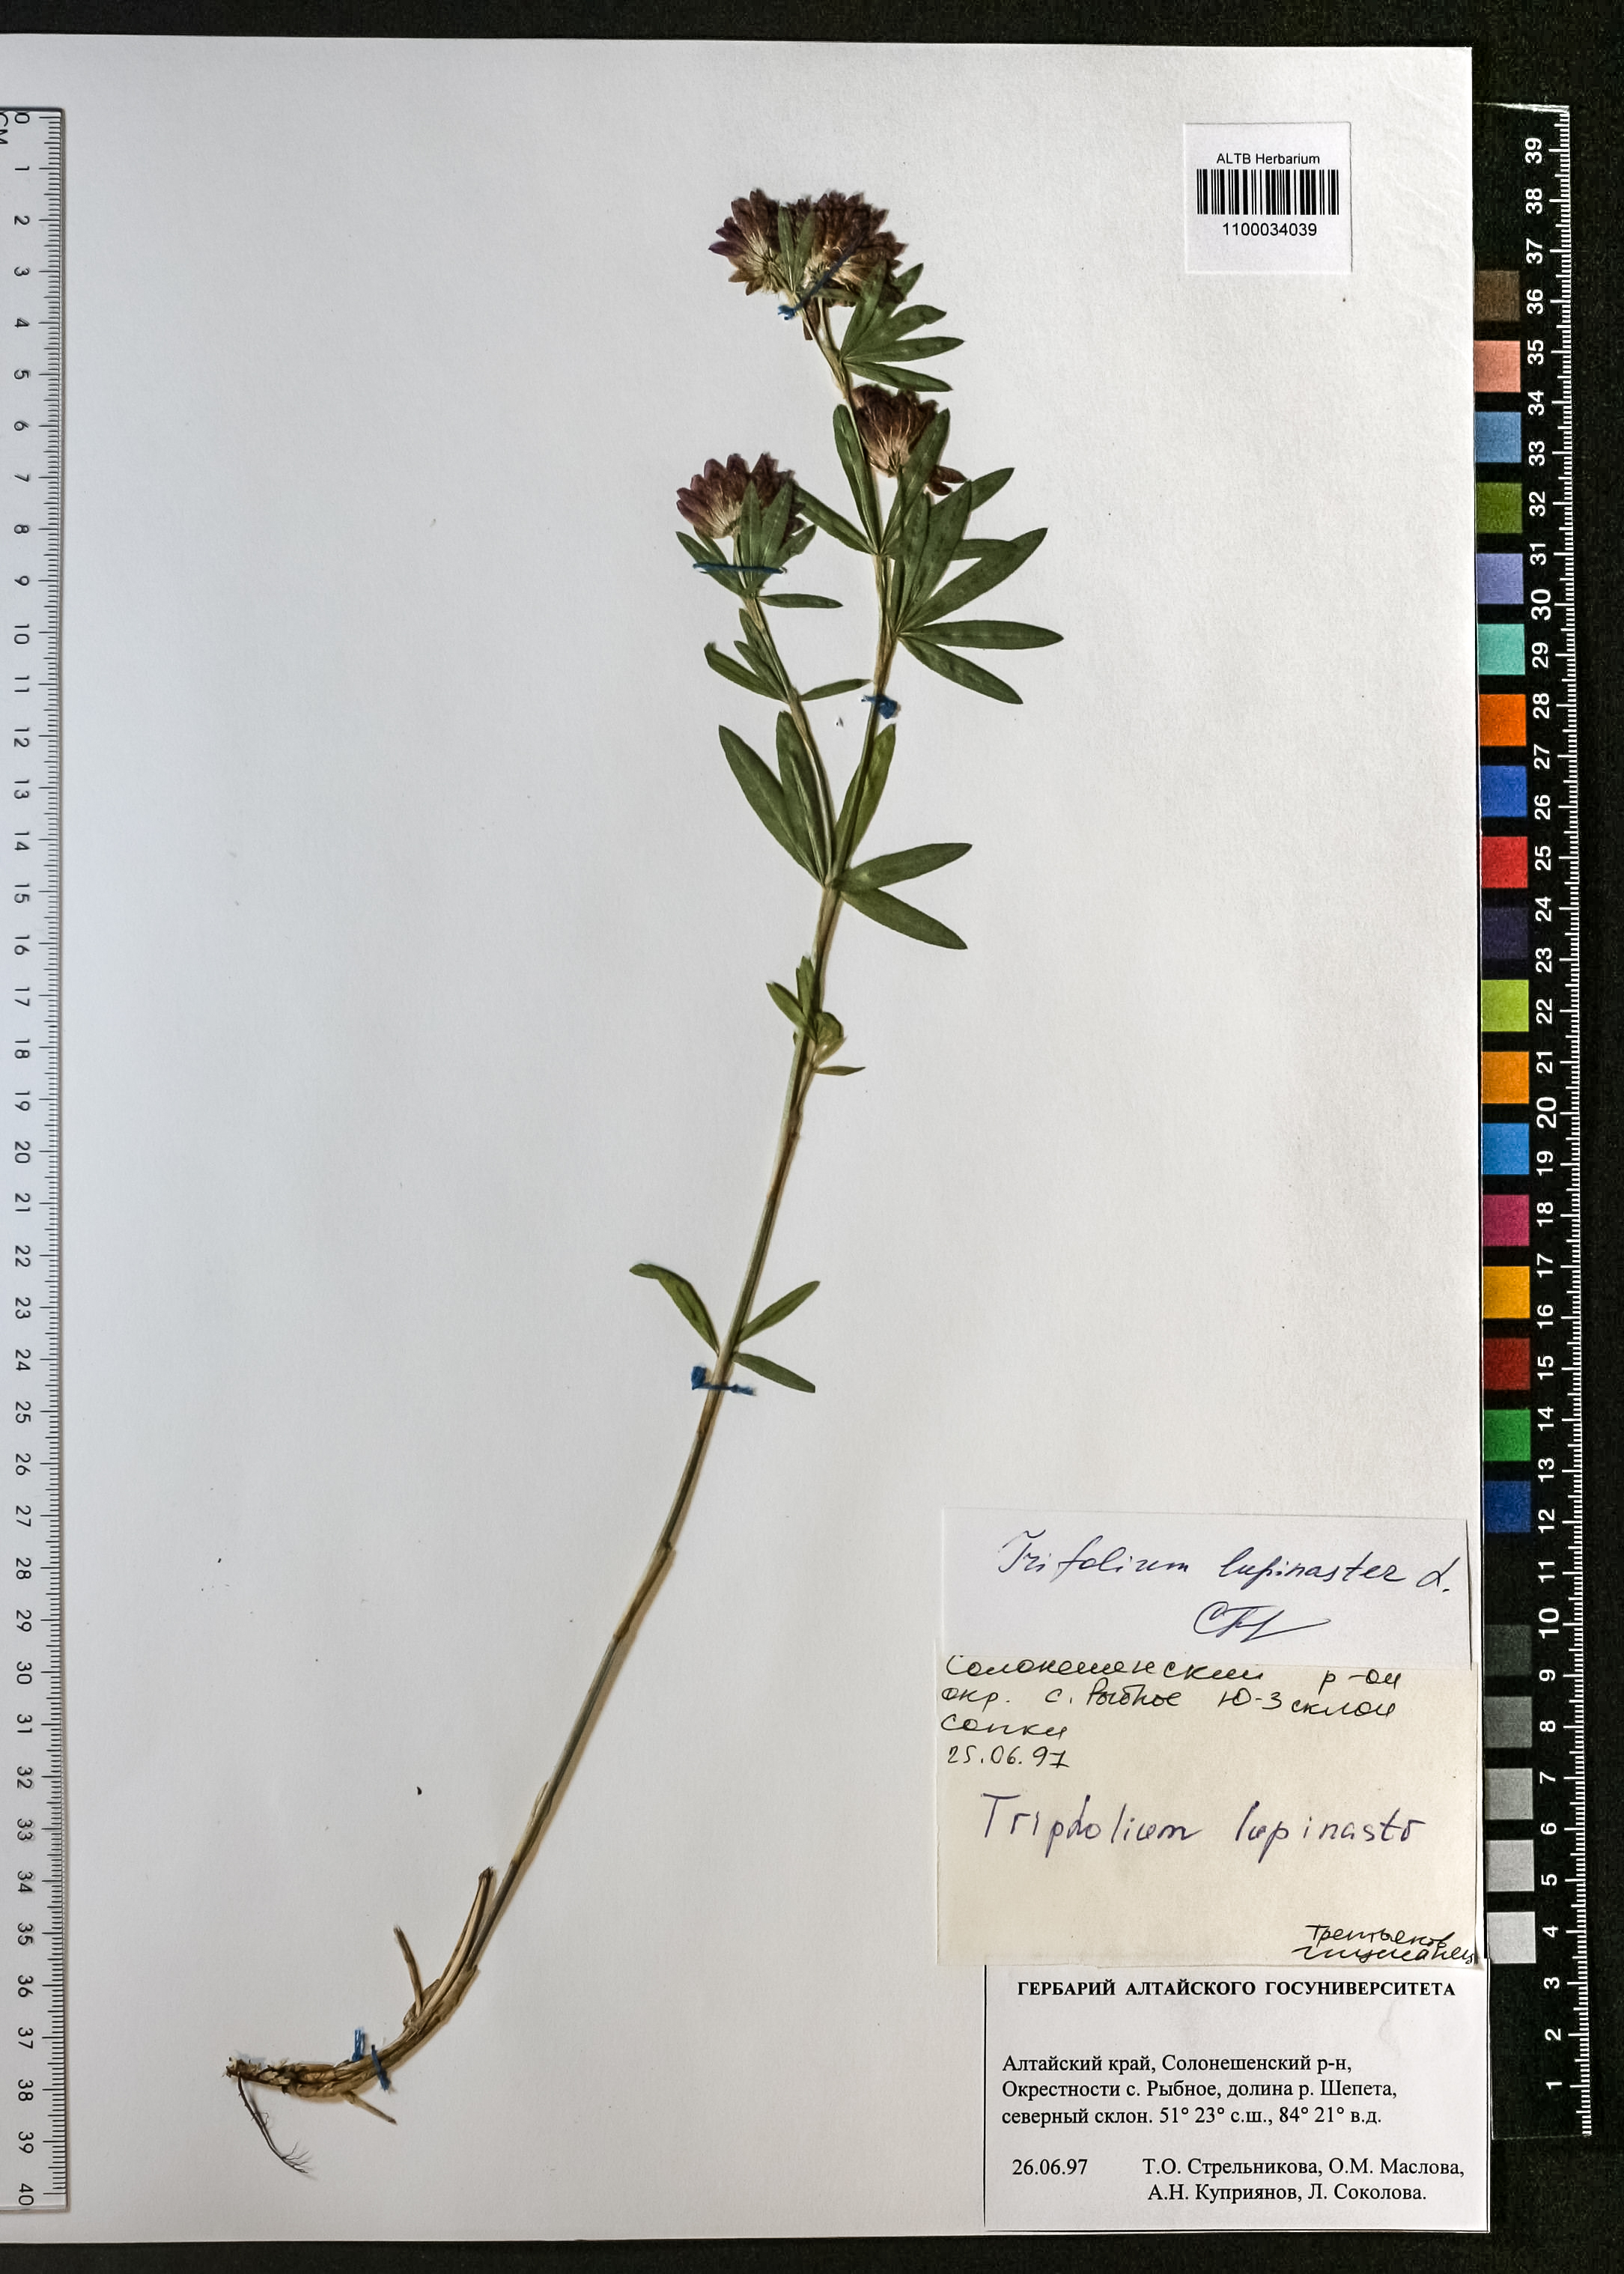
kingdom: Plantae
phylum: Tracheophyta
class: Magnoliopsida
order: Fabales
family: Fabaceae
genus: Trifolium
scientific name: Trifolium lupinaster
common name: Lupine clover
